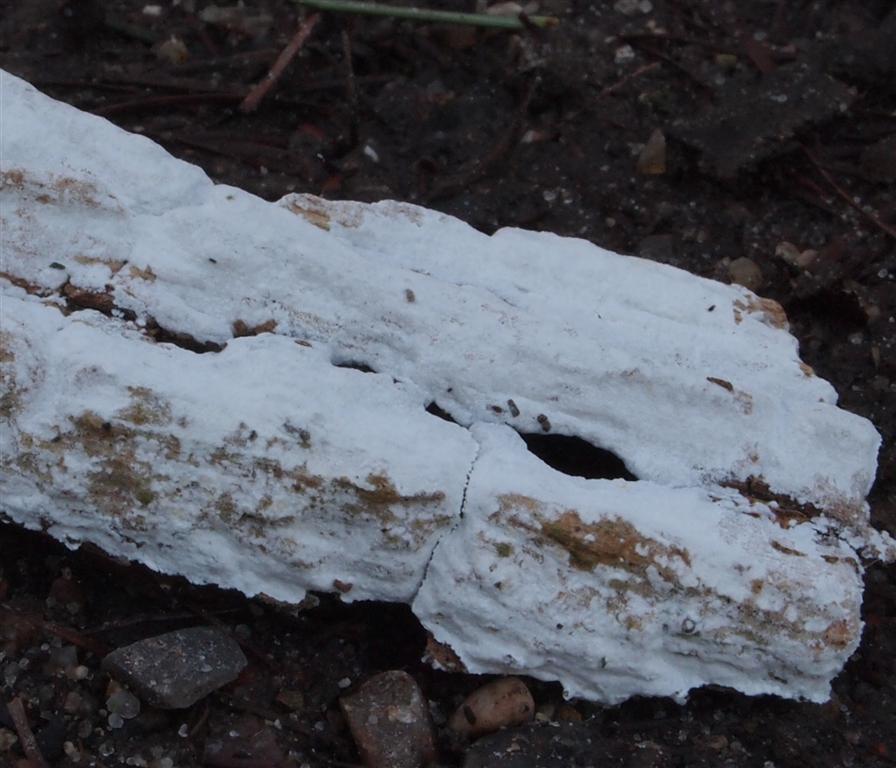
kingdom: Fungi
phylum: Basidiomycota
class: Agaricomycetes
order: Corticiales
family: Corticiaceae
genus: Lyomyces
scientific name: Lyomyces sambuci
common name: almindelig hyldehinde
